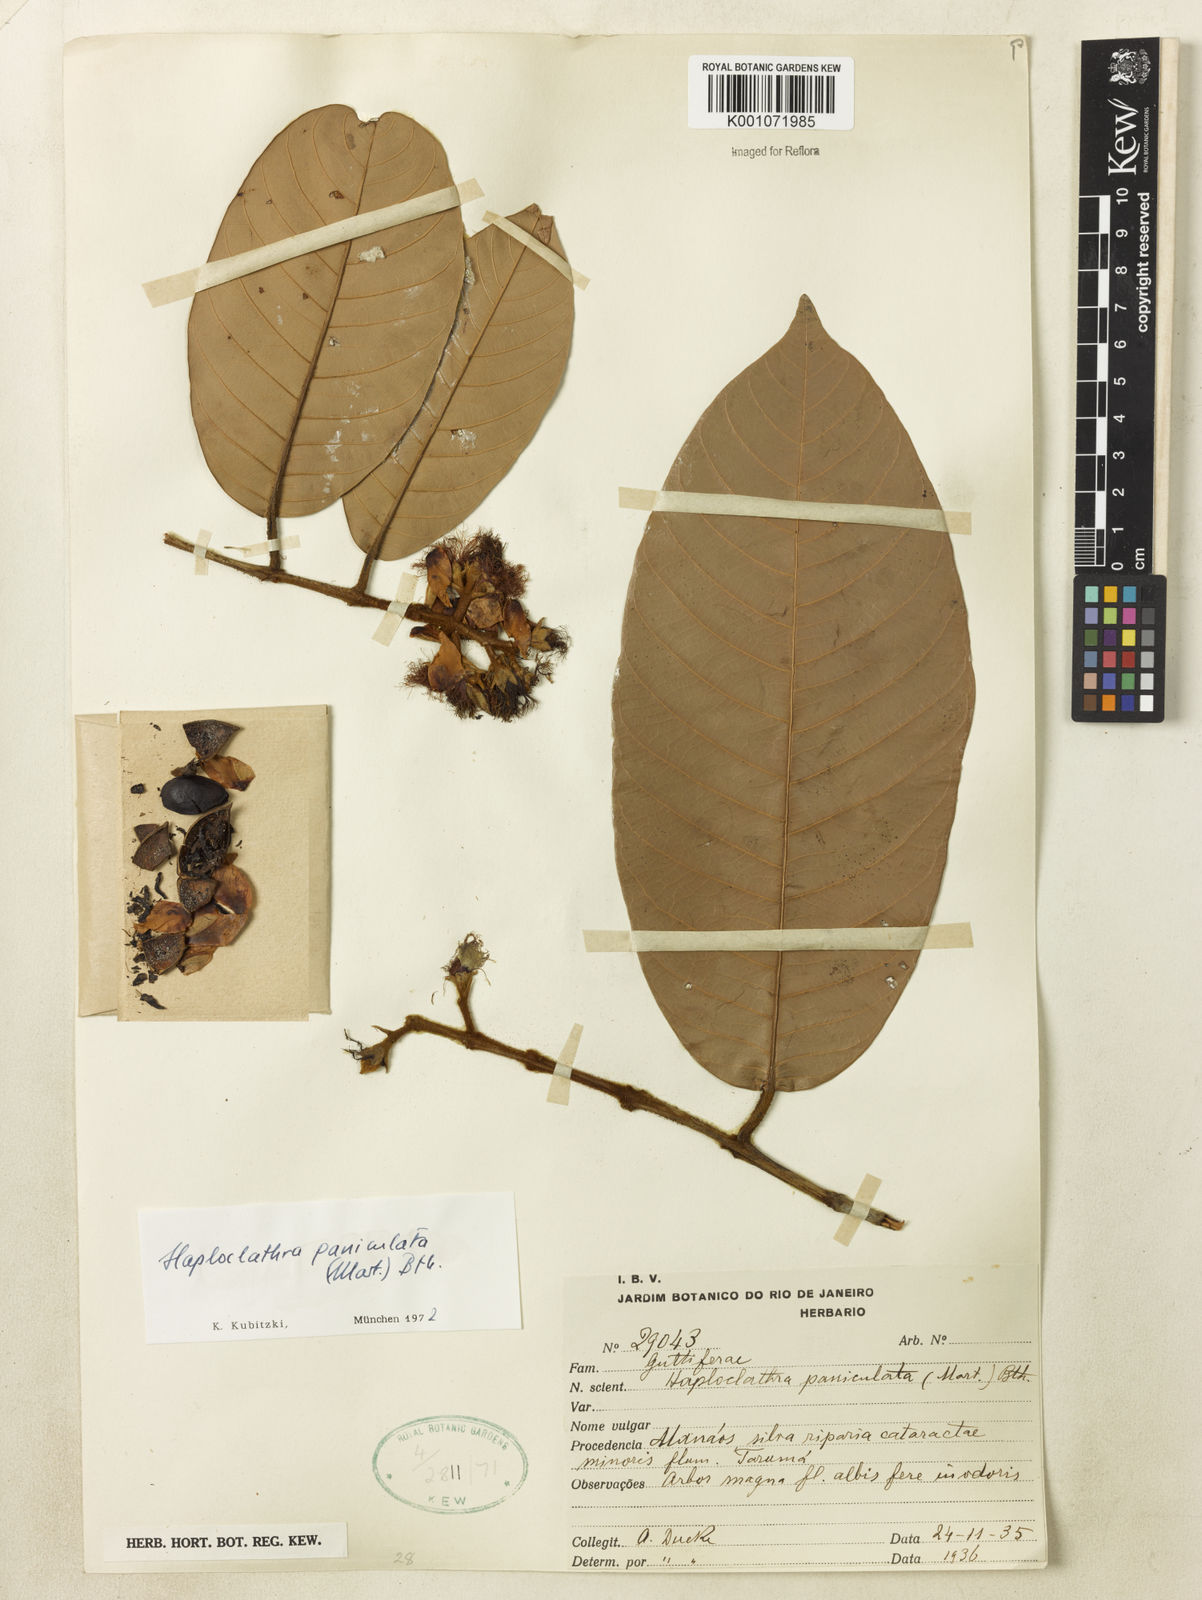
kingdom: Plantae
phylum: Tracheophyta
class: Magnoliopsida
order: Malpighiales
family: Calophyllaceae
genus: Haploclathra
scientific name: Haploclathra paniculata
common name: Red-wood
